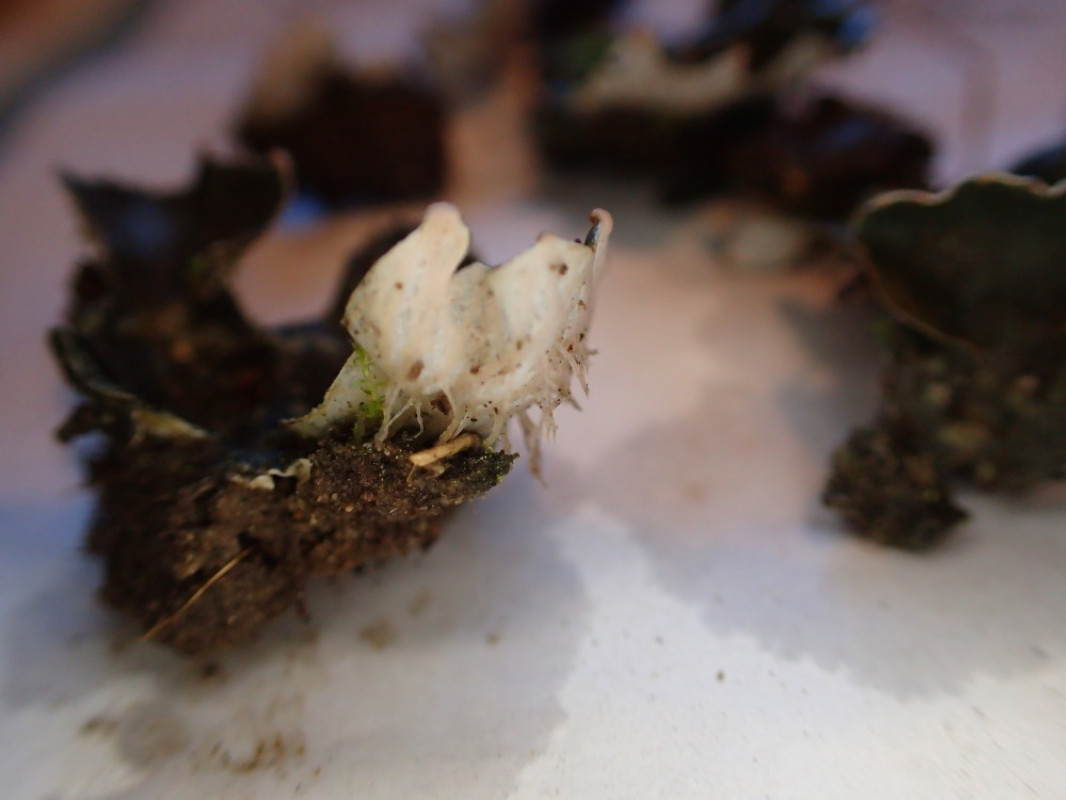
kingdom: Fungi
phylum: Ascomycota
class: Lecanoromycetes
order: Peltigerales
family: Peltigeraceae
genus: Peltigera
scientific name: Peltigera didactyla
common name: liden skjoldlav
